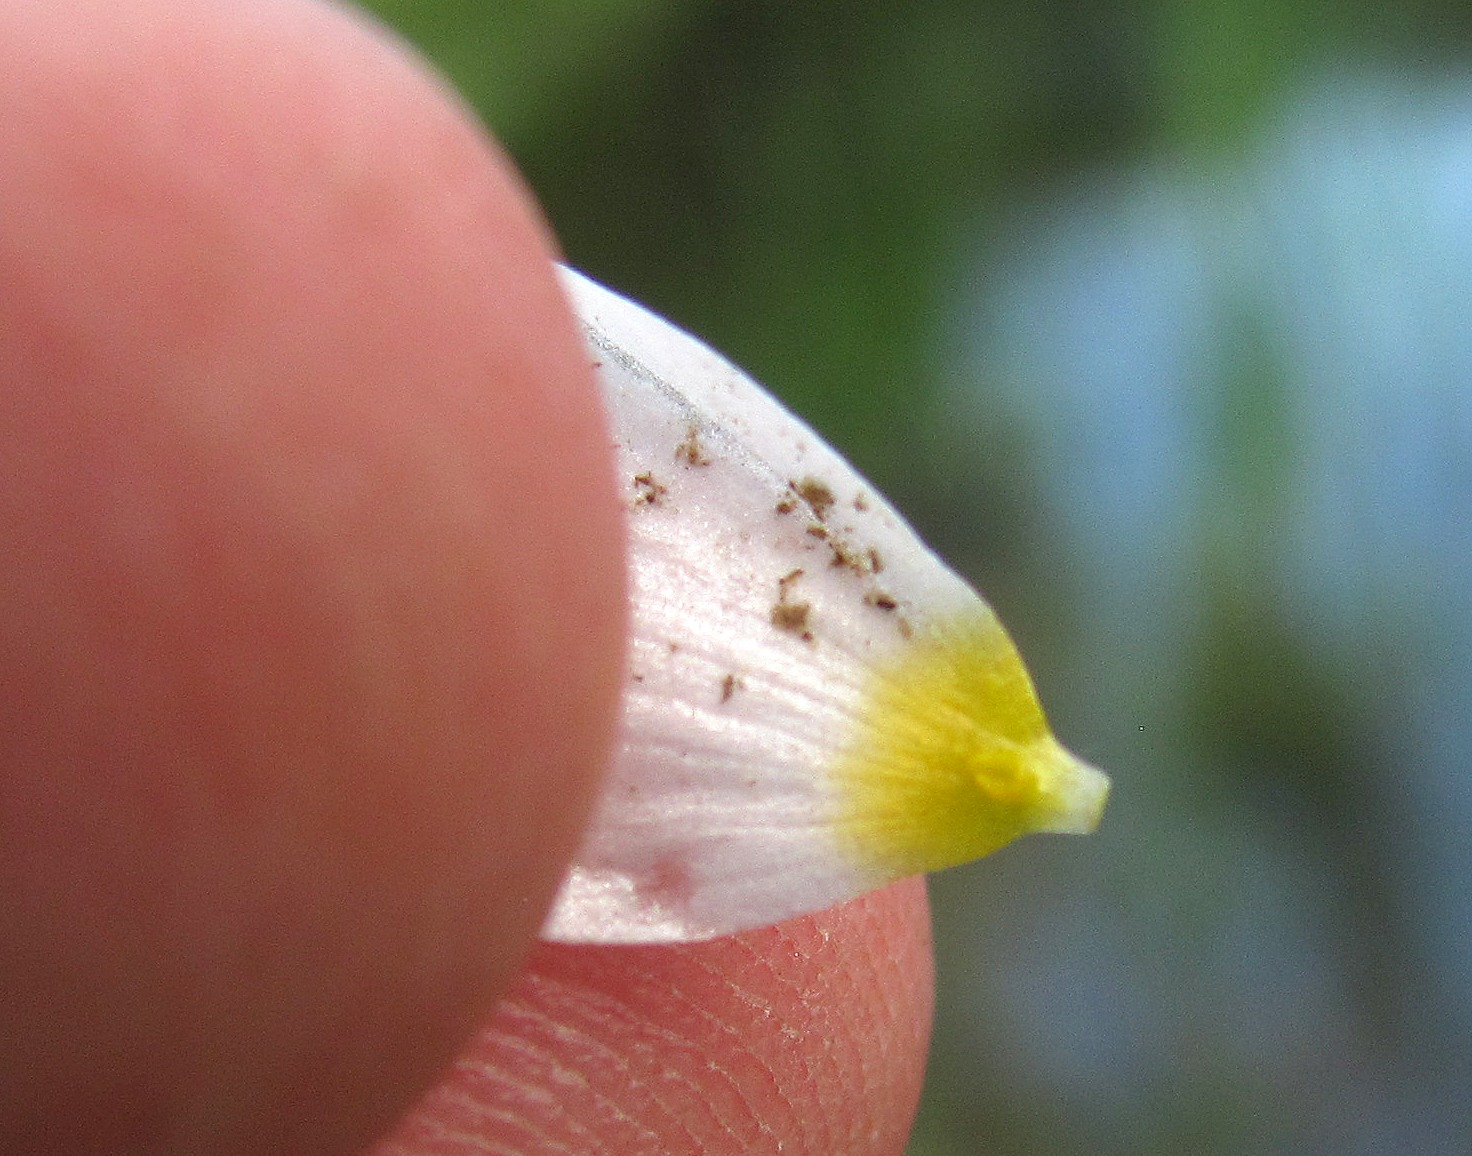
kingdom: Plantae
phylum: Tracheophyta
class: Magnoliopsida
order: Ranunculales
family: Ranunculaceae
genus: Ranunculus
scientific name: Ranunculus peltatus
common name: Storblomstret vandranunkel
